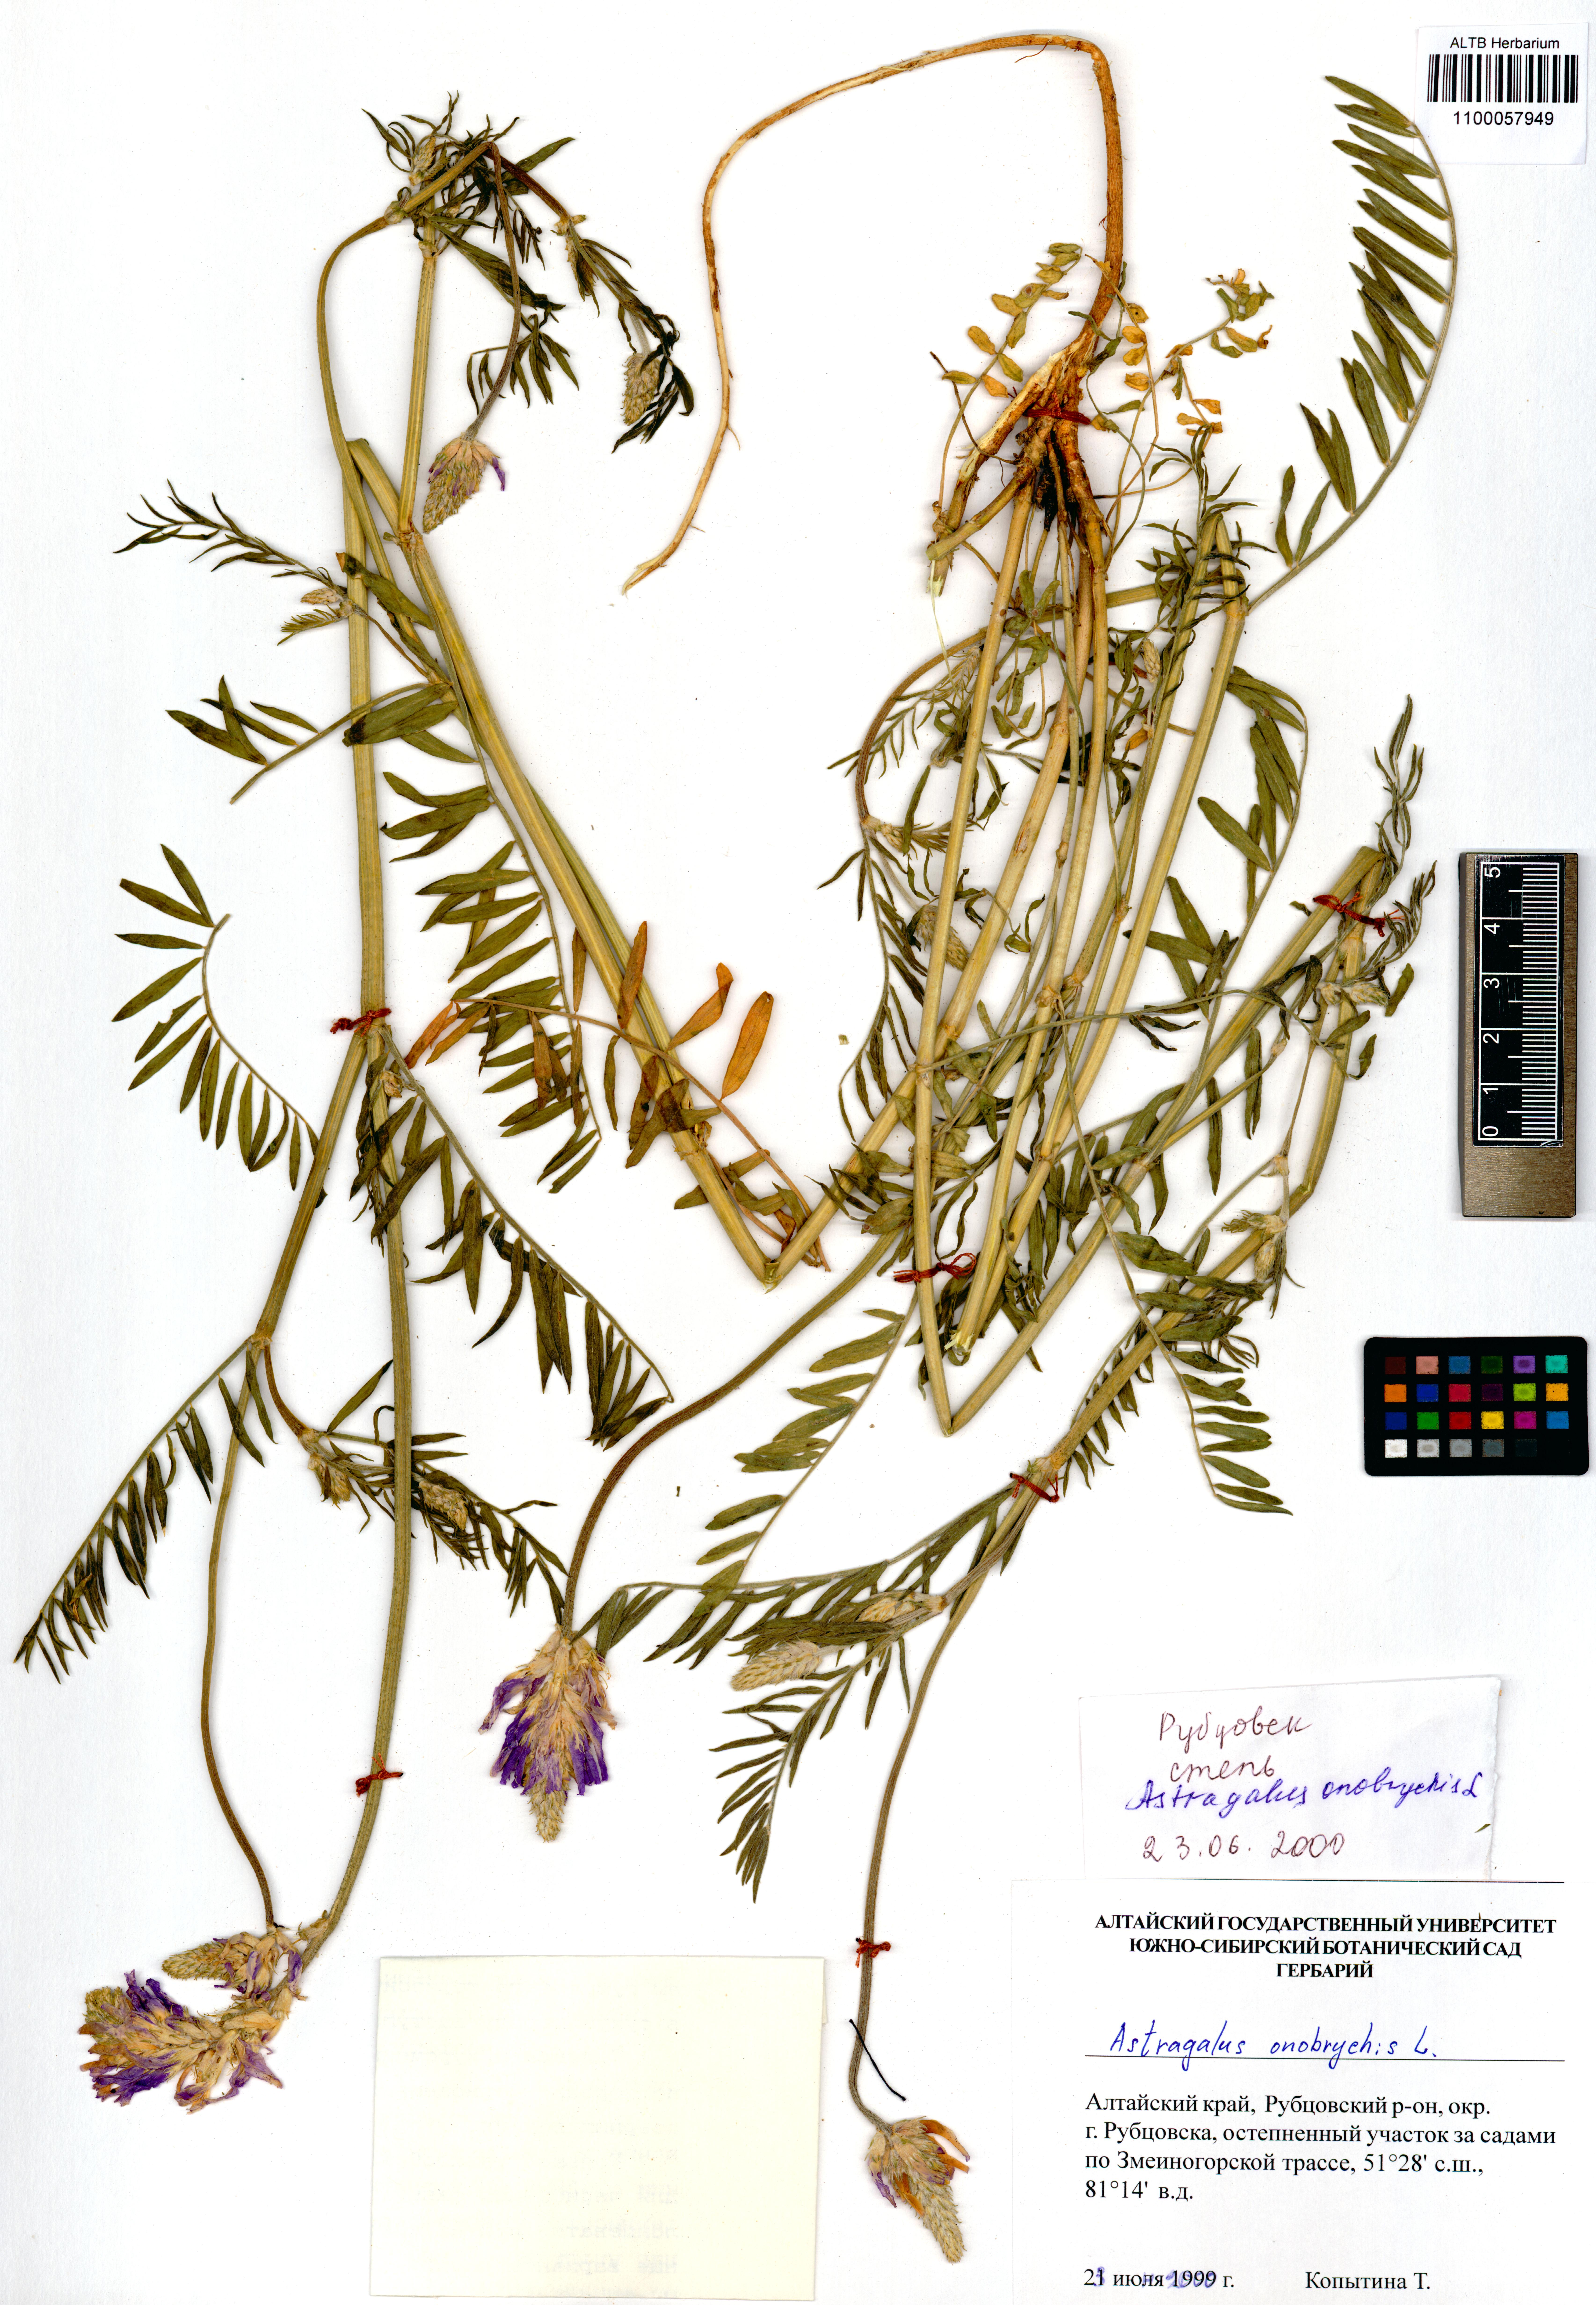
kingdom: Plantae
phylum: Tracheophyta
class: Magnoliopsida
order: Fabales
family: Fabaceae
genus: Astragalus
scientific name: Astragalus onobrychis
